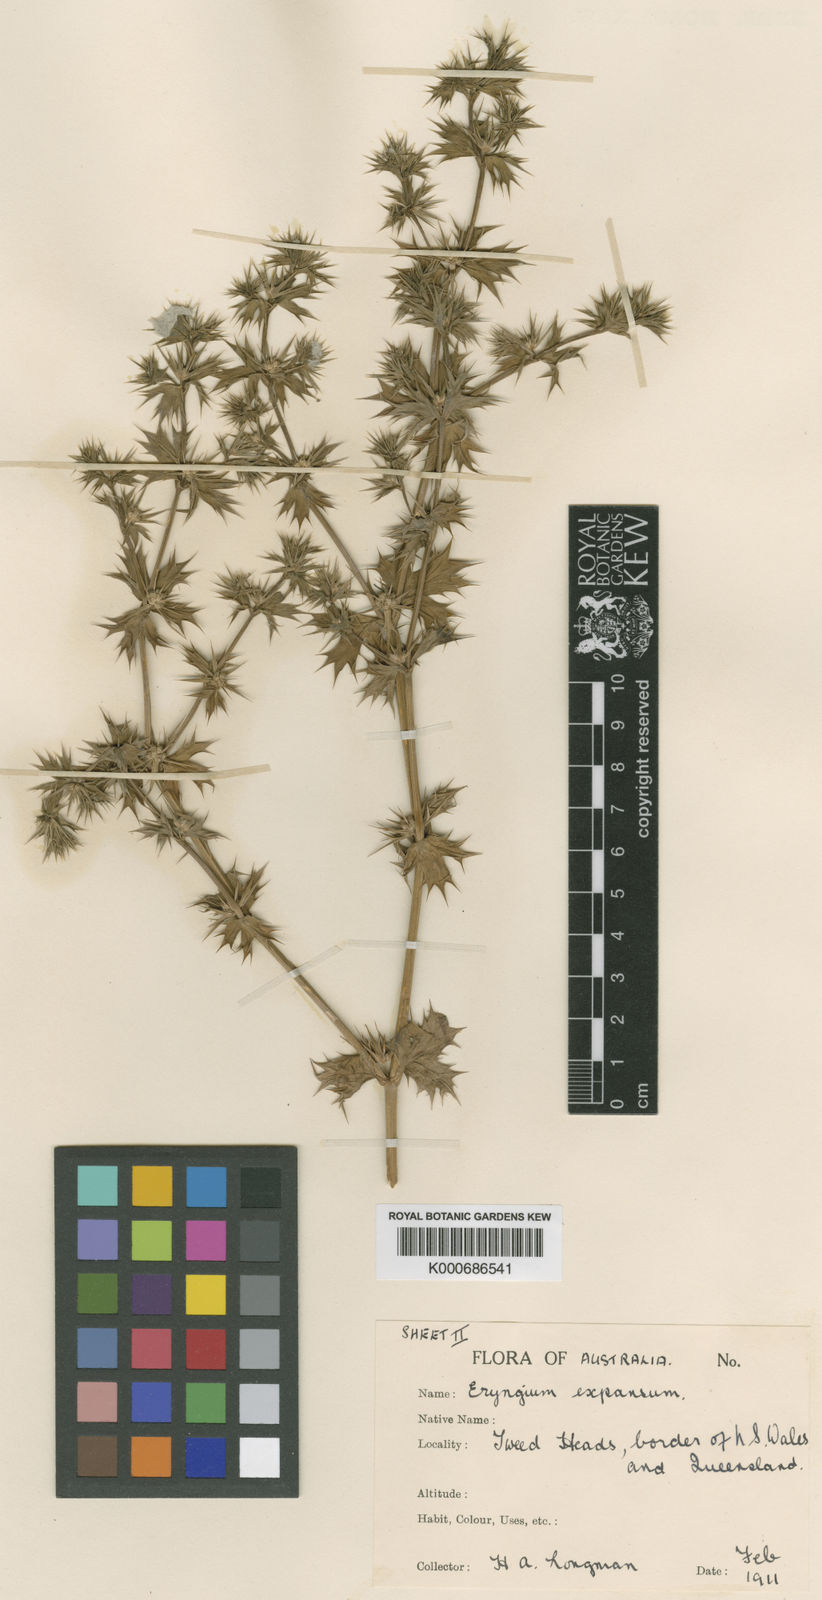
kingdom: Plantae
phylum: Tracheophyta
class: Magnoliopsida
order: Apiales
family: Apiaceae
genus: Eryngium
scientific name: Eryngium expansum
